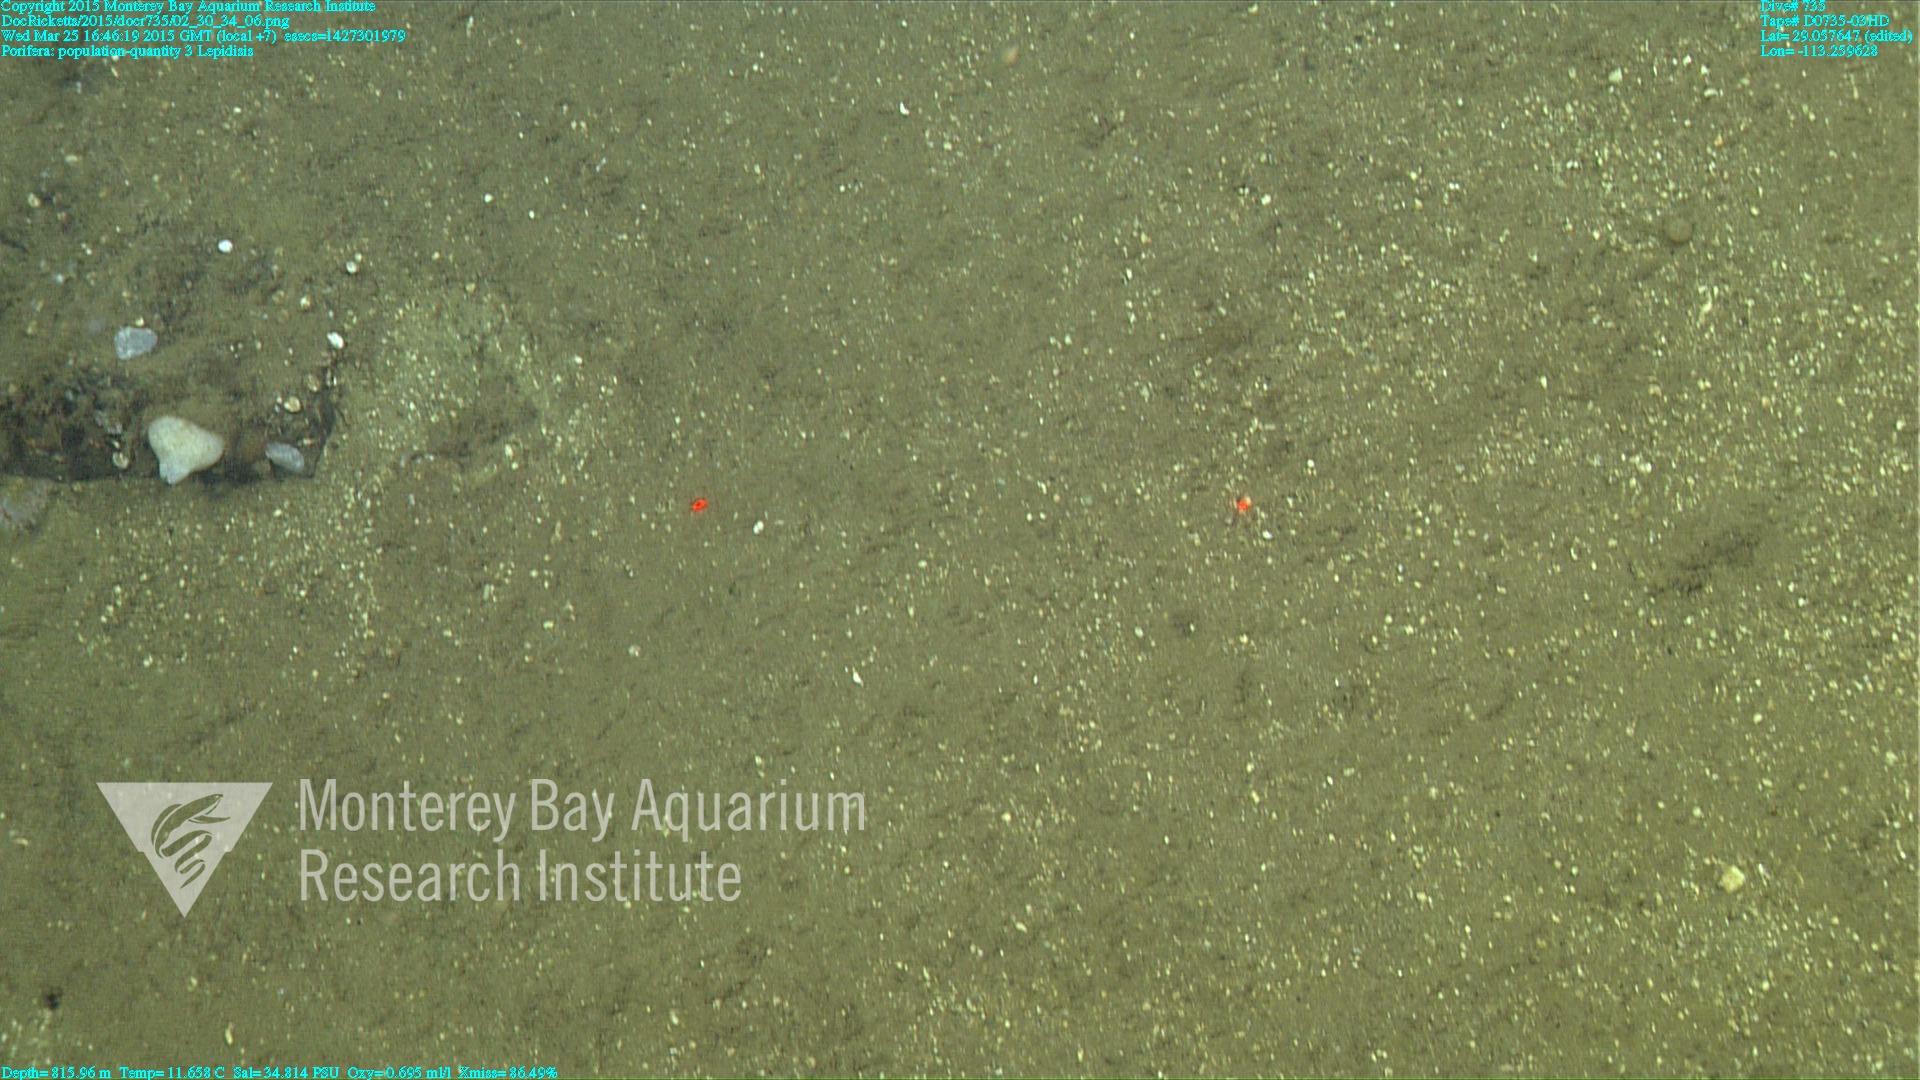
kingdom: Animalia
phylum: Cnidaria
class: Anthozoa
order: Scleralcyonacea
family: Keratoisididae
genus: Lepidisis
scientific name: Lepidisis
